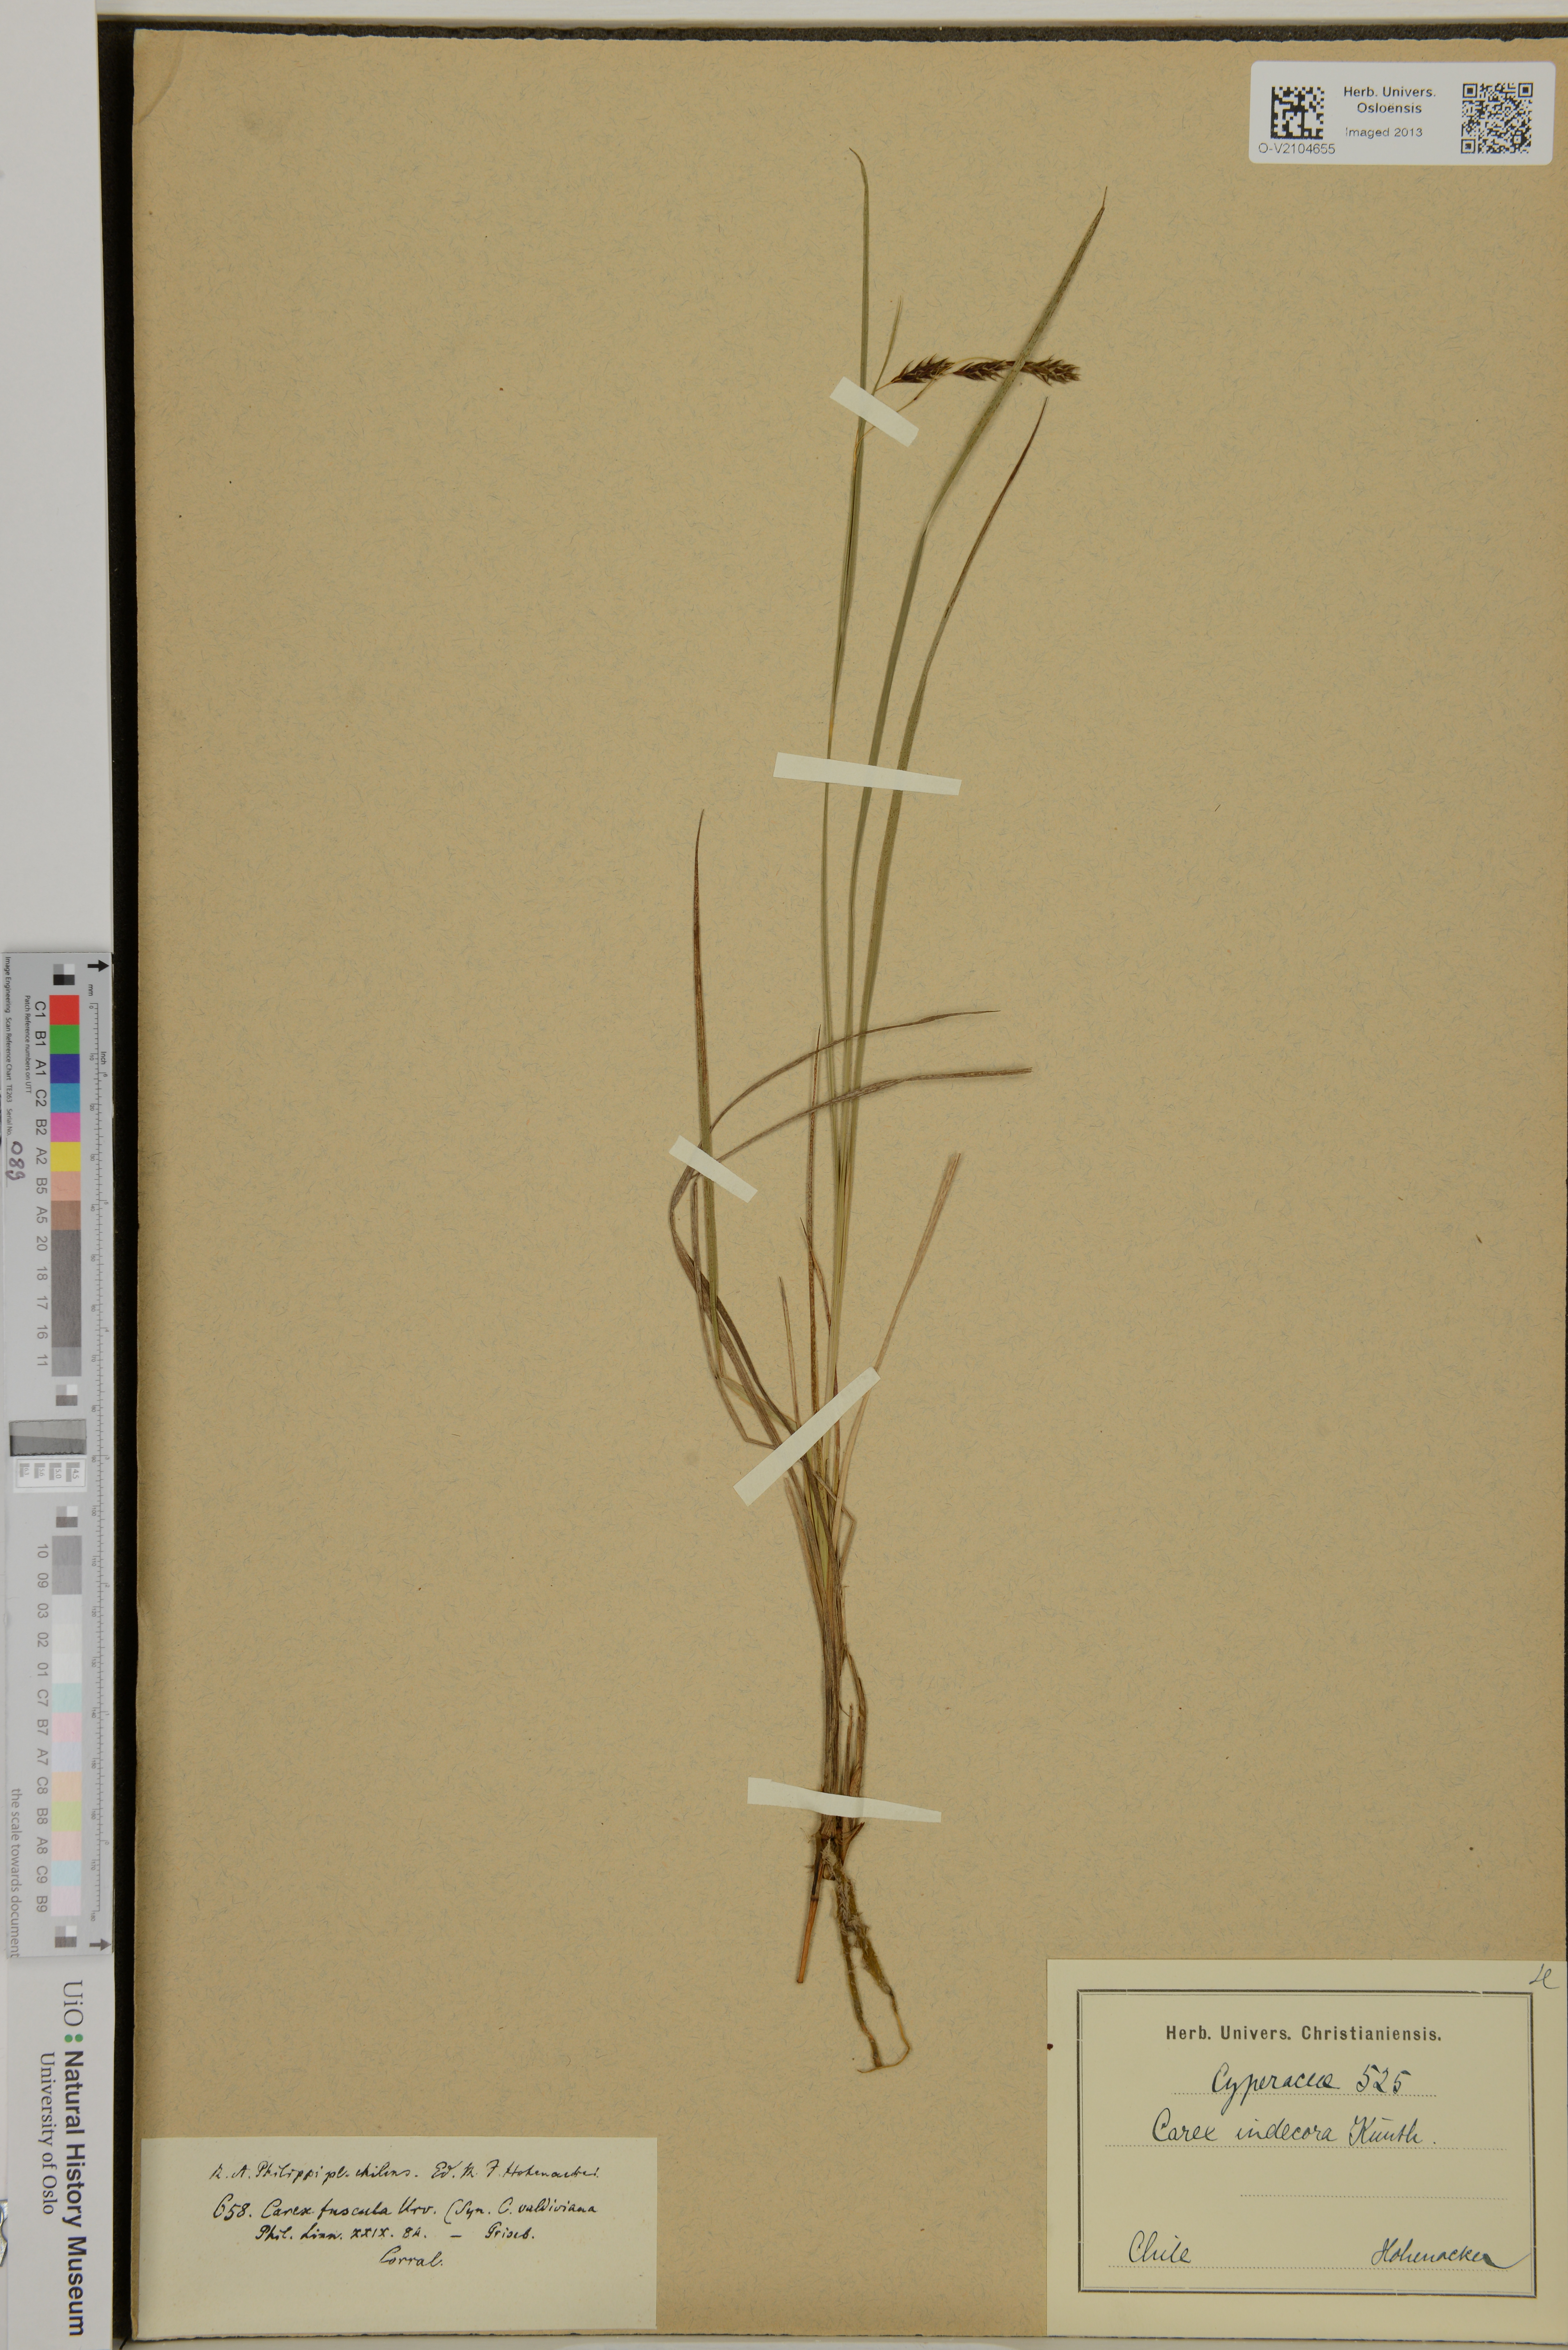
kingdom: Plantae
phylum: Tracheophyta
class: Liliopsida
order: Poales
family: Cyperaceae
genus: Carex
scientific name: Carex fuscula
